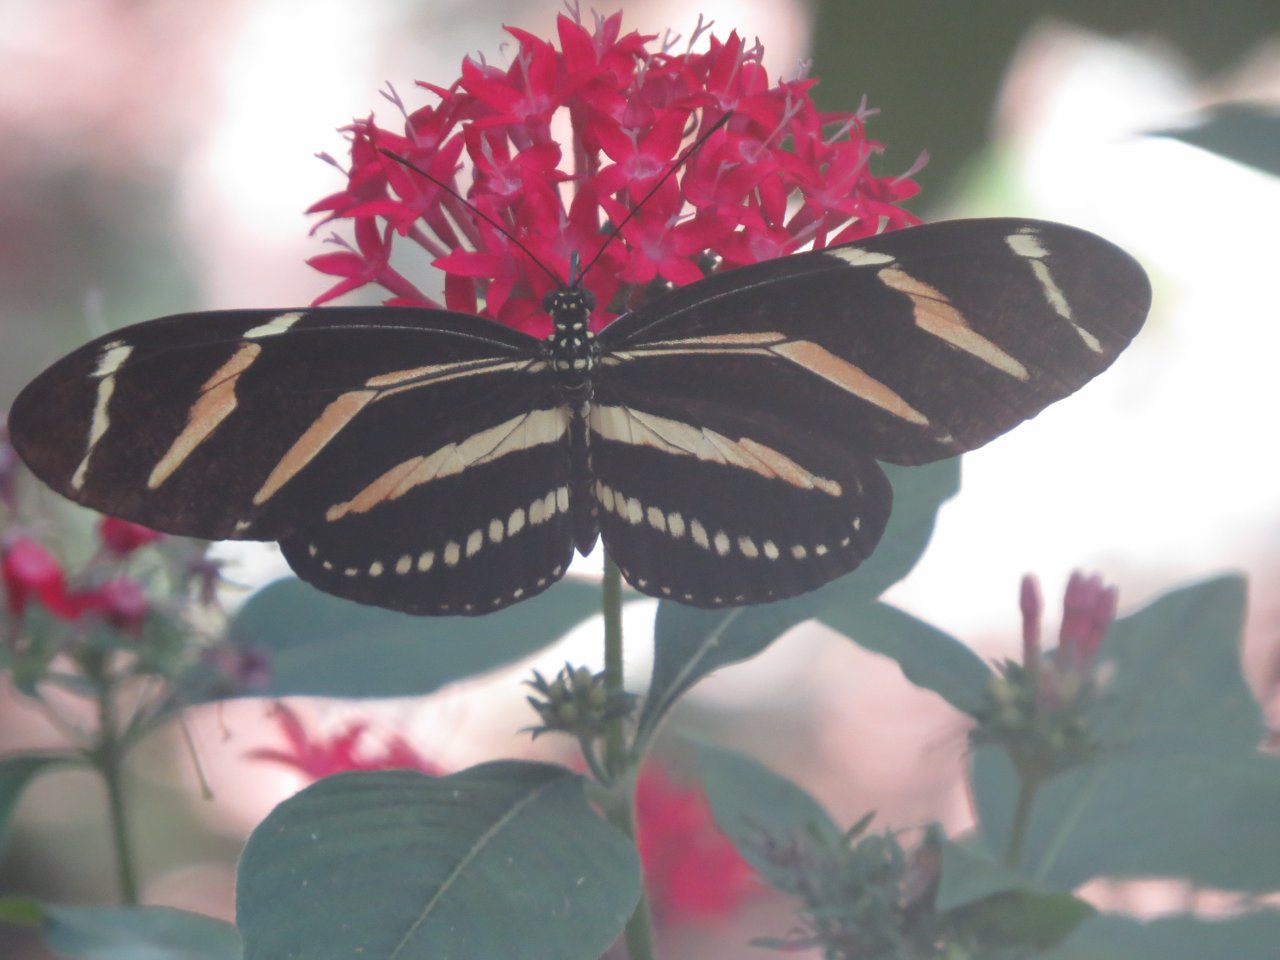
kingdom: Animalia
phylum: Arthropoda
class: Insecta
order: Lepidoptera
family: Nymphalidae
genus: Heliconius
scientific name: Heliconius charithonia
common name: Zebra Longwing
